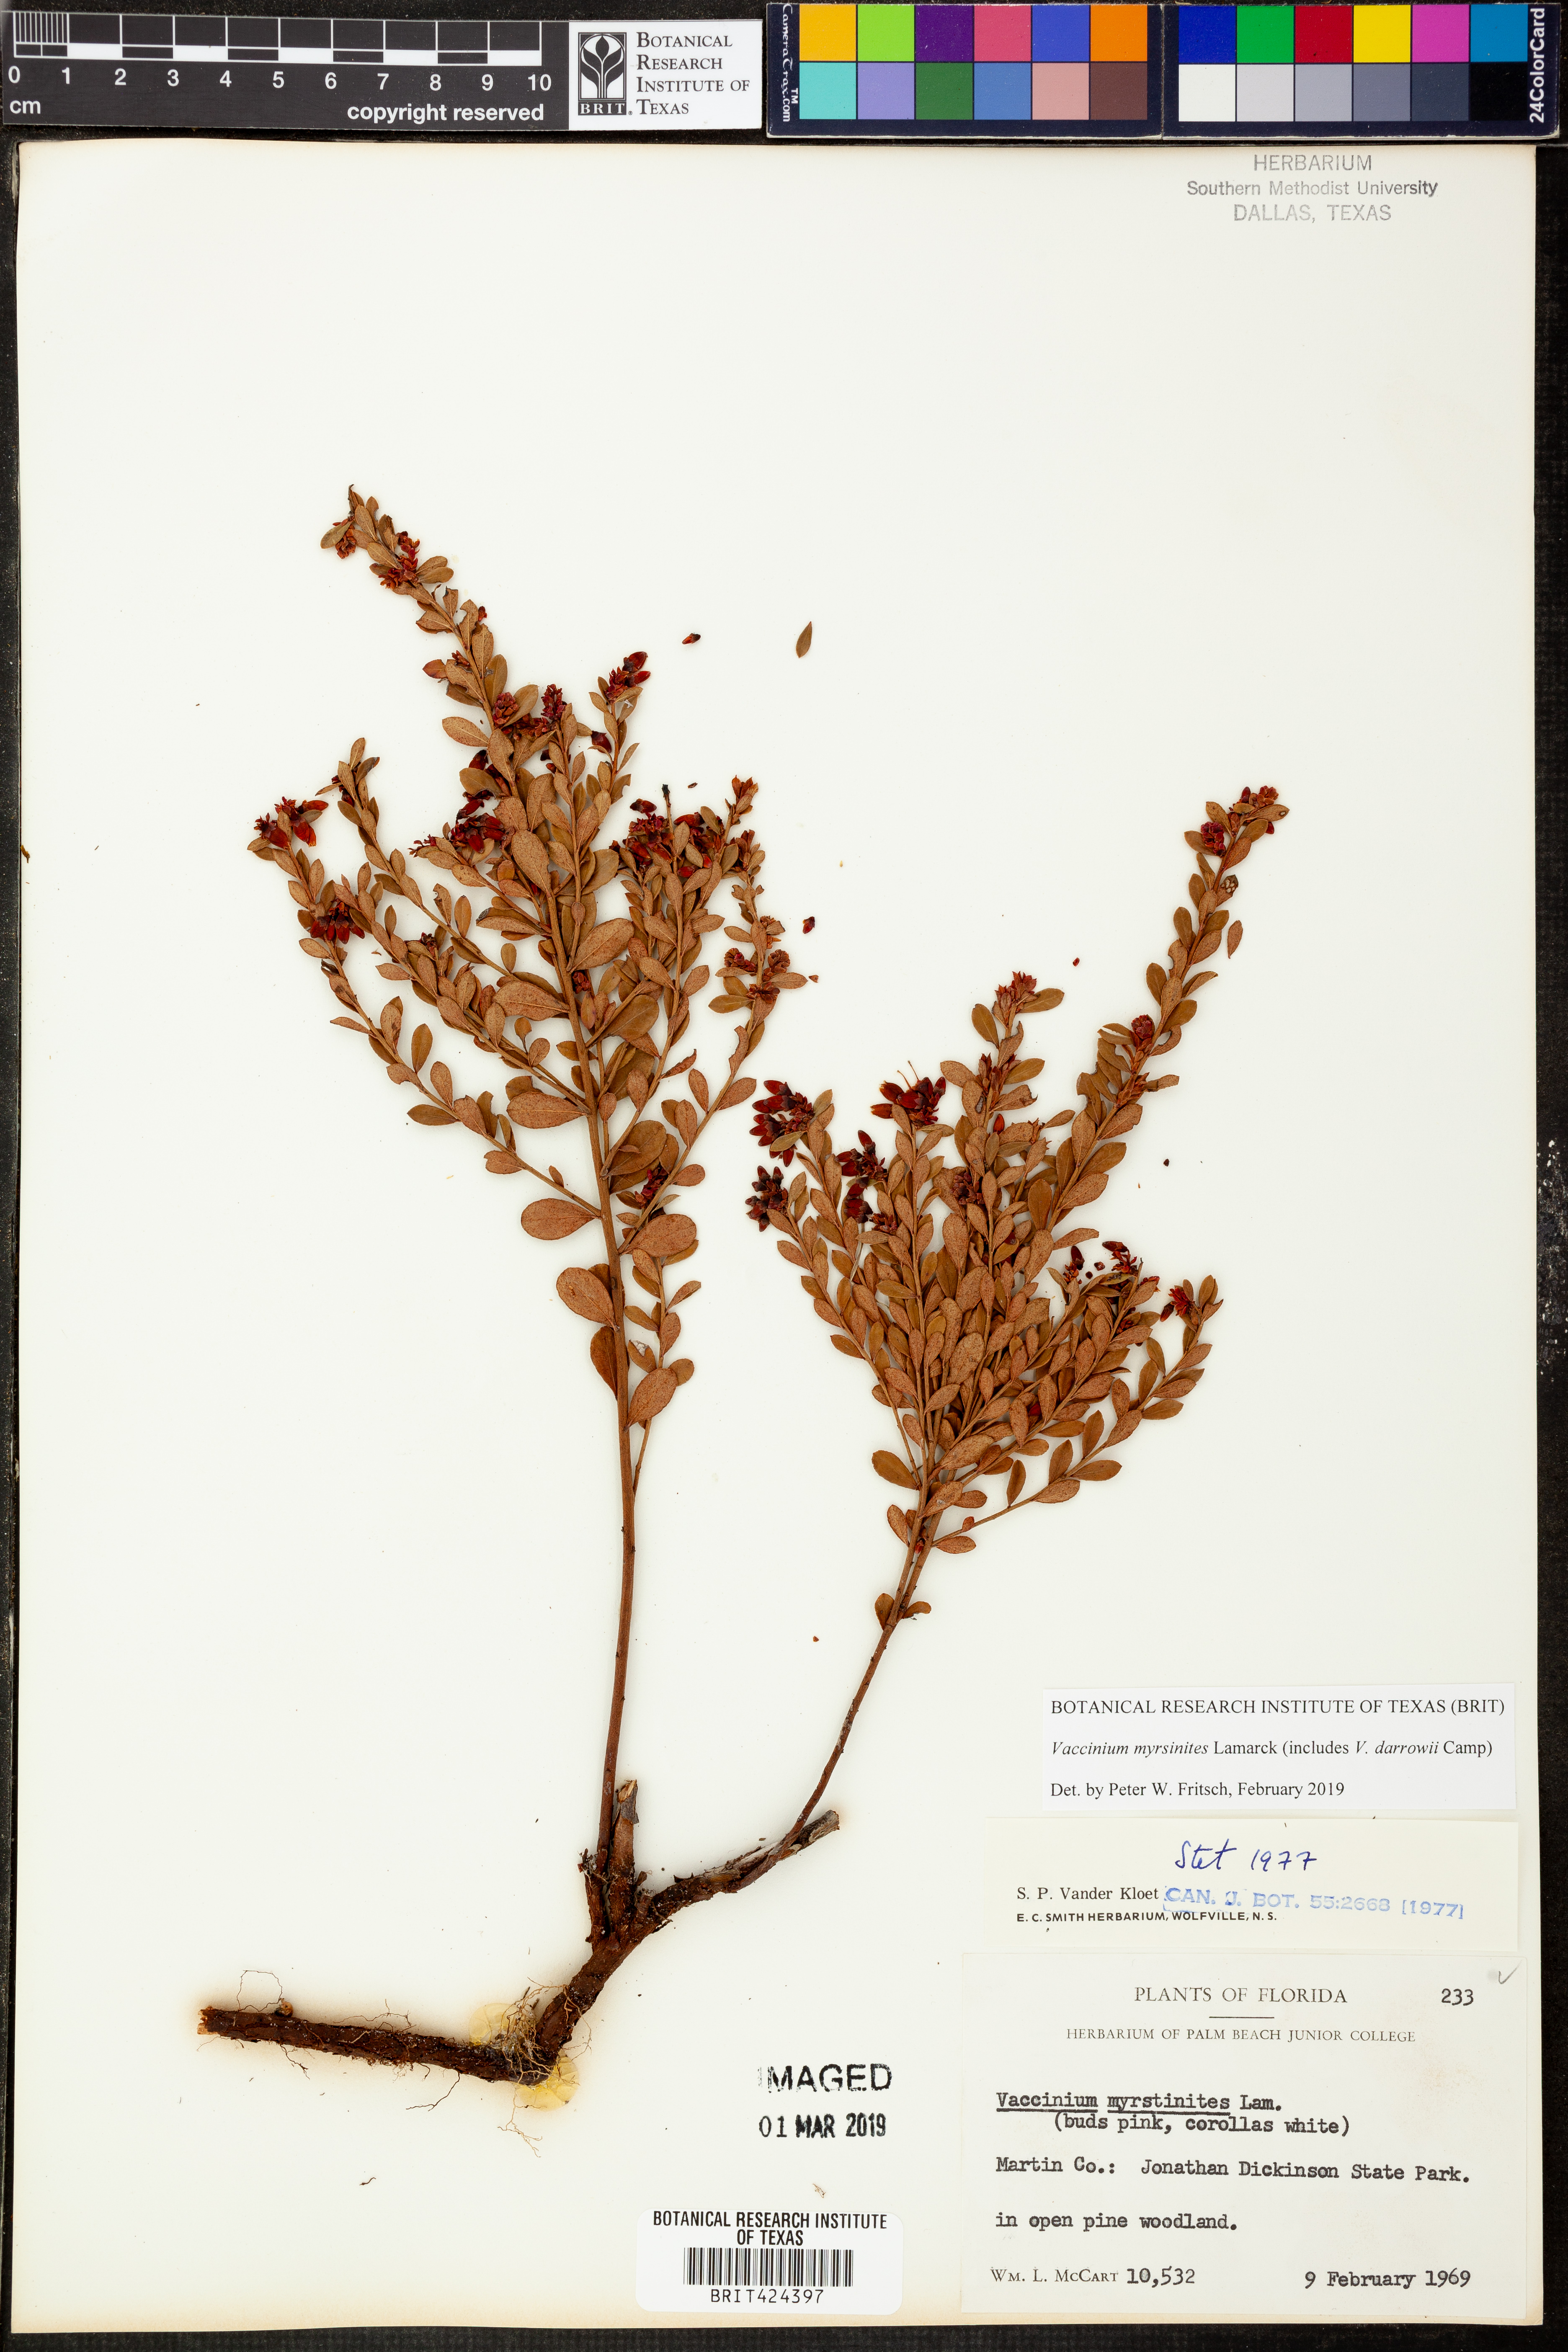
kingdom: Plantae
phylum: Tracheophyta
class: Magnoliopsida
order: Ericales
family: Ericaceae
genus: Vaccinium
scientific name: Vaccinium myrsinites
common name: Evergreen blueberry
